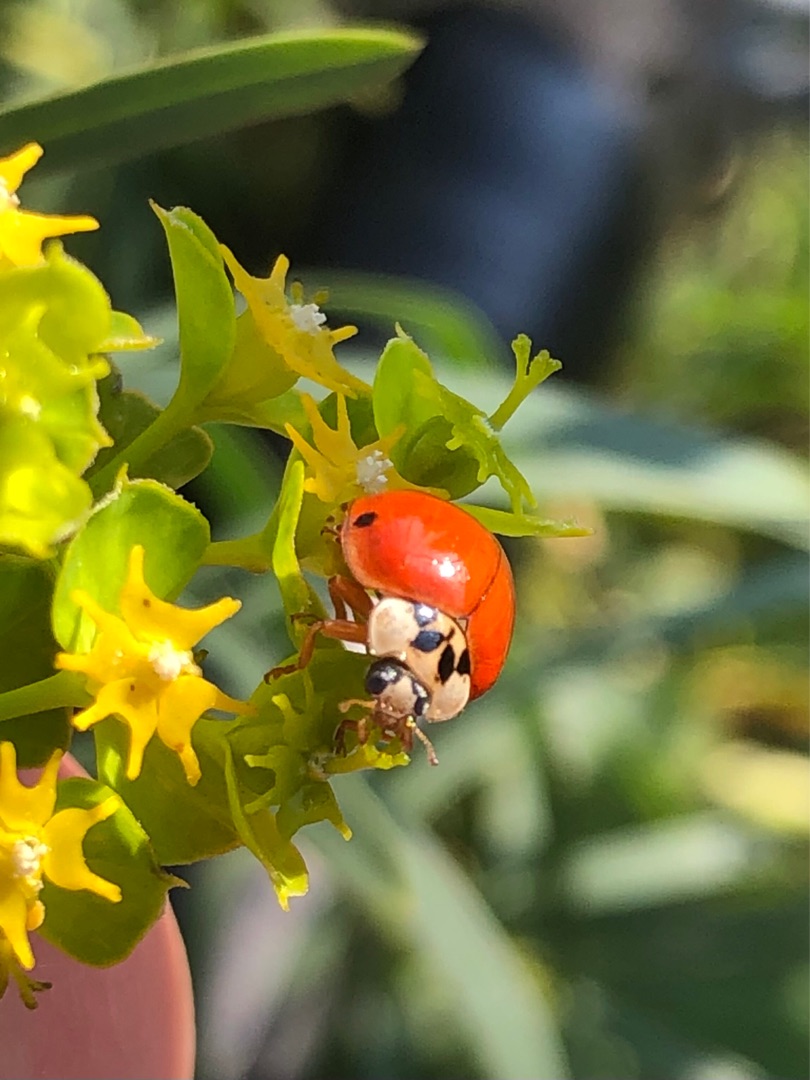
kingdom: Animalia
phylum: Arthropoda
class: Insecta
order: Coleoptera
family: Coccinellidae
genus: Harmonia
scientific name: Harmonia axyridis
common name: Harlekinmariehøne
